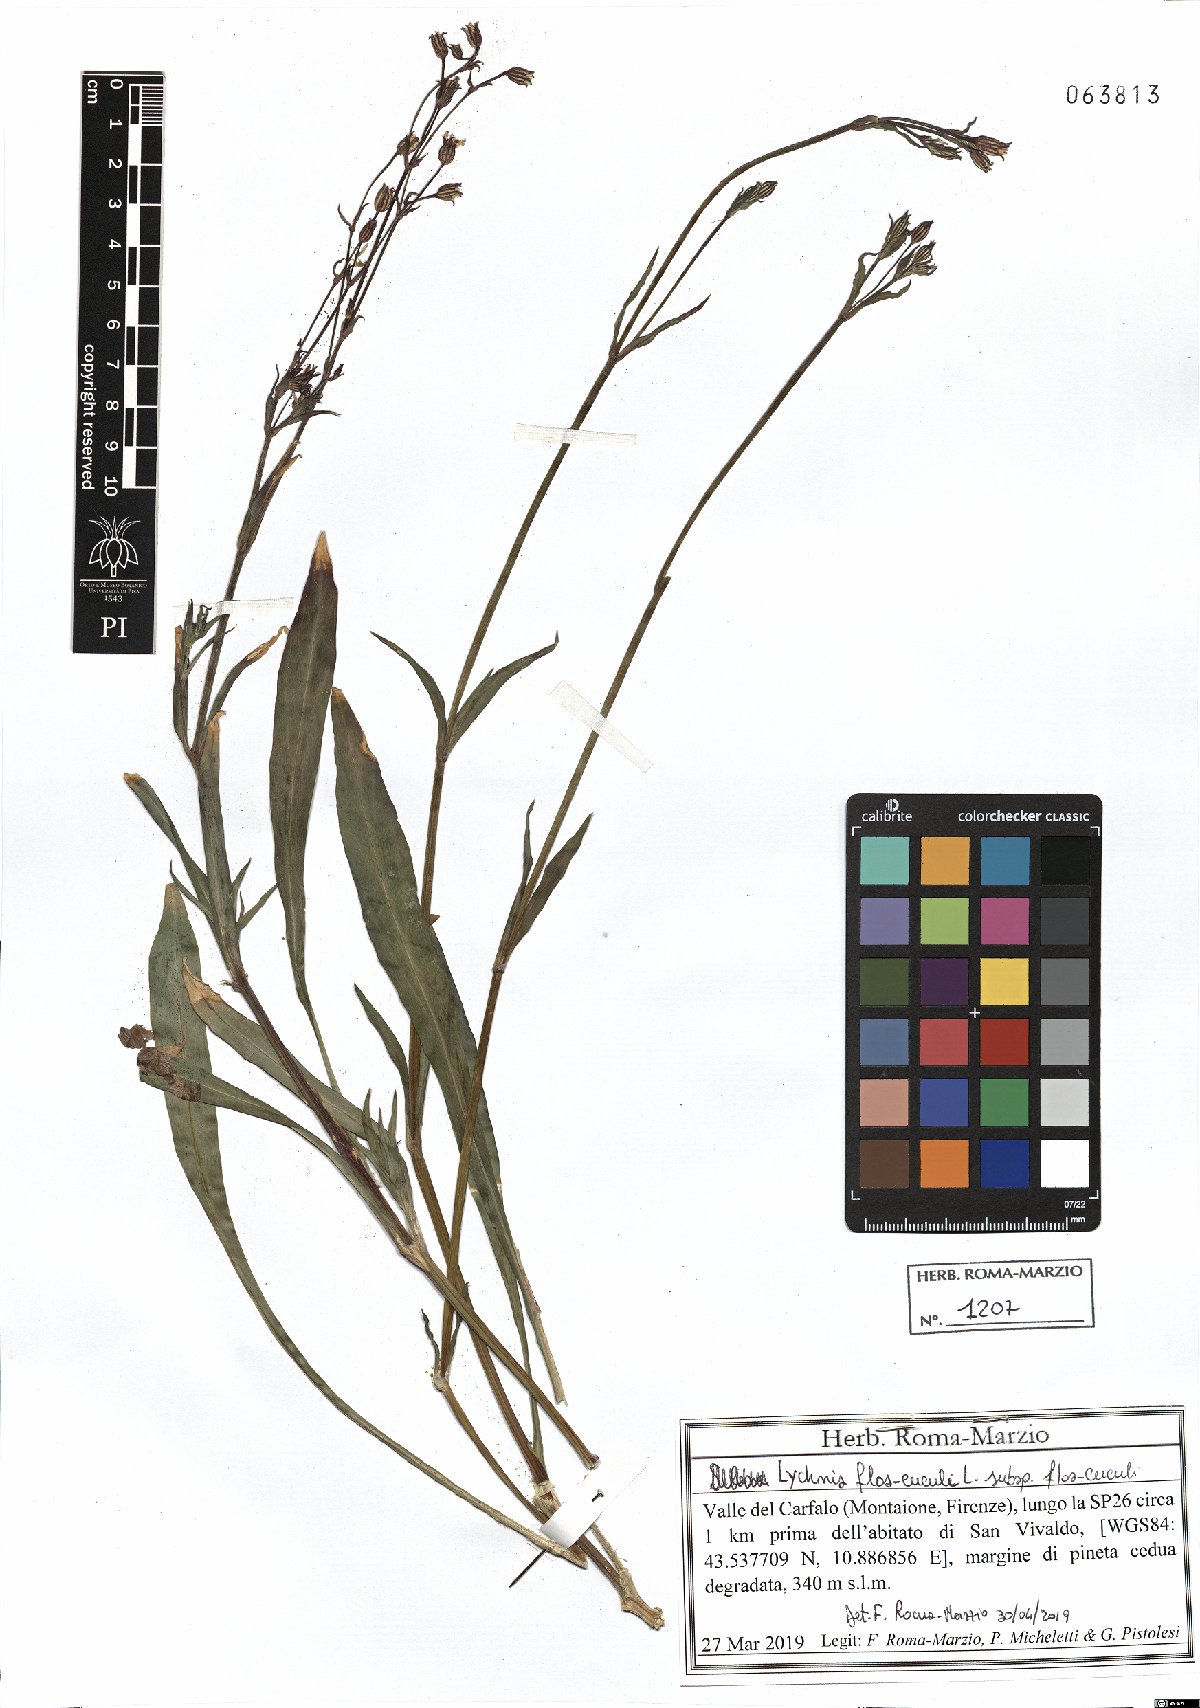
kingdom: Plantae
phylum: Tracheophyta
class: Magnoliopsida
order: Caryophyllales
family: Caryophyllaceae
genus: Silene
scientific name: Silene flos-cuculi
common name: Ragged-robin
